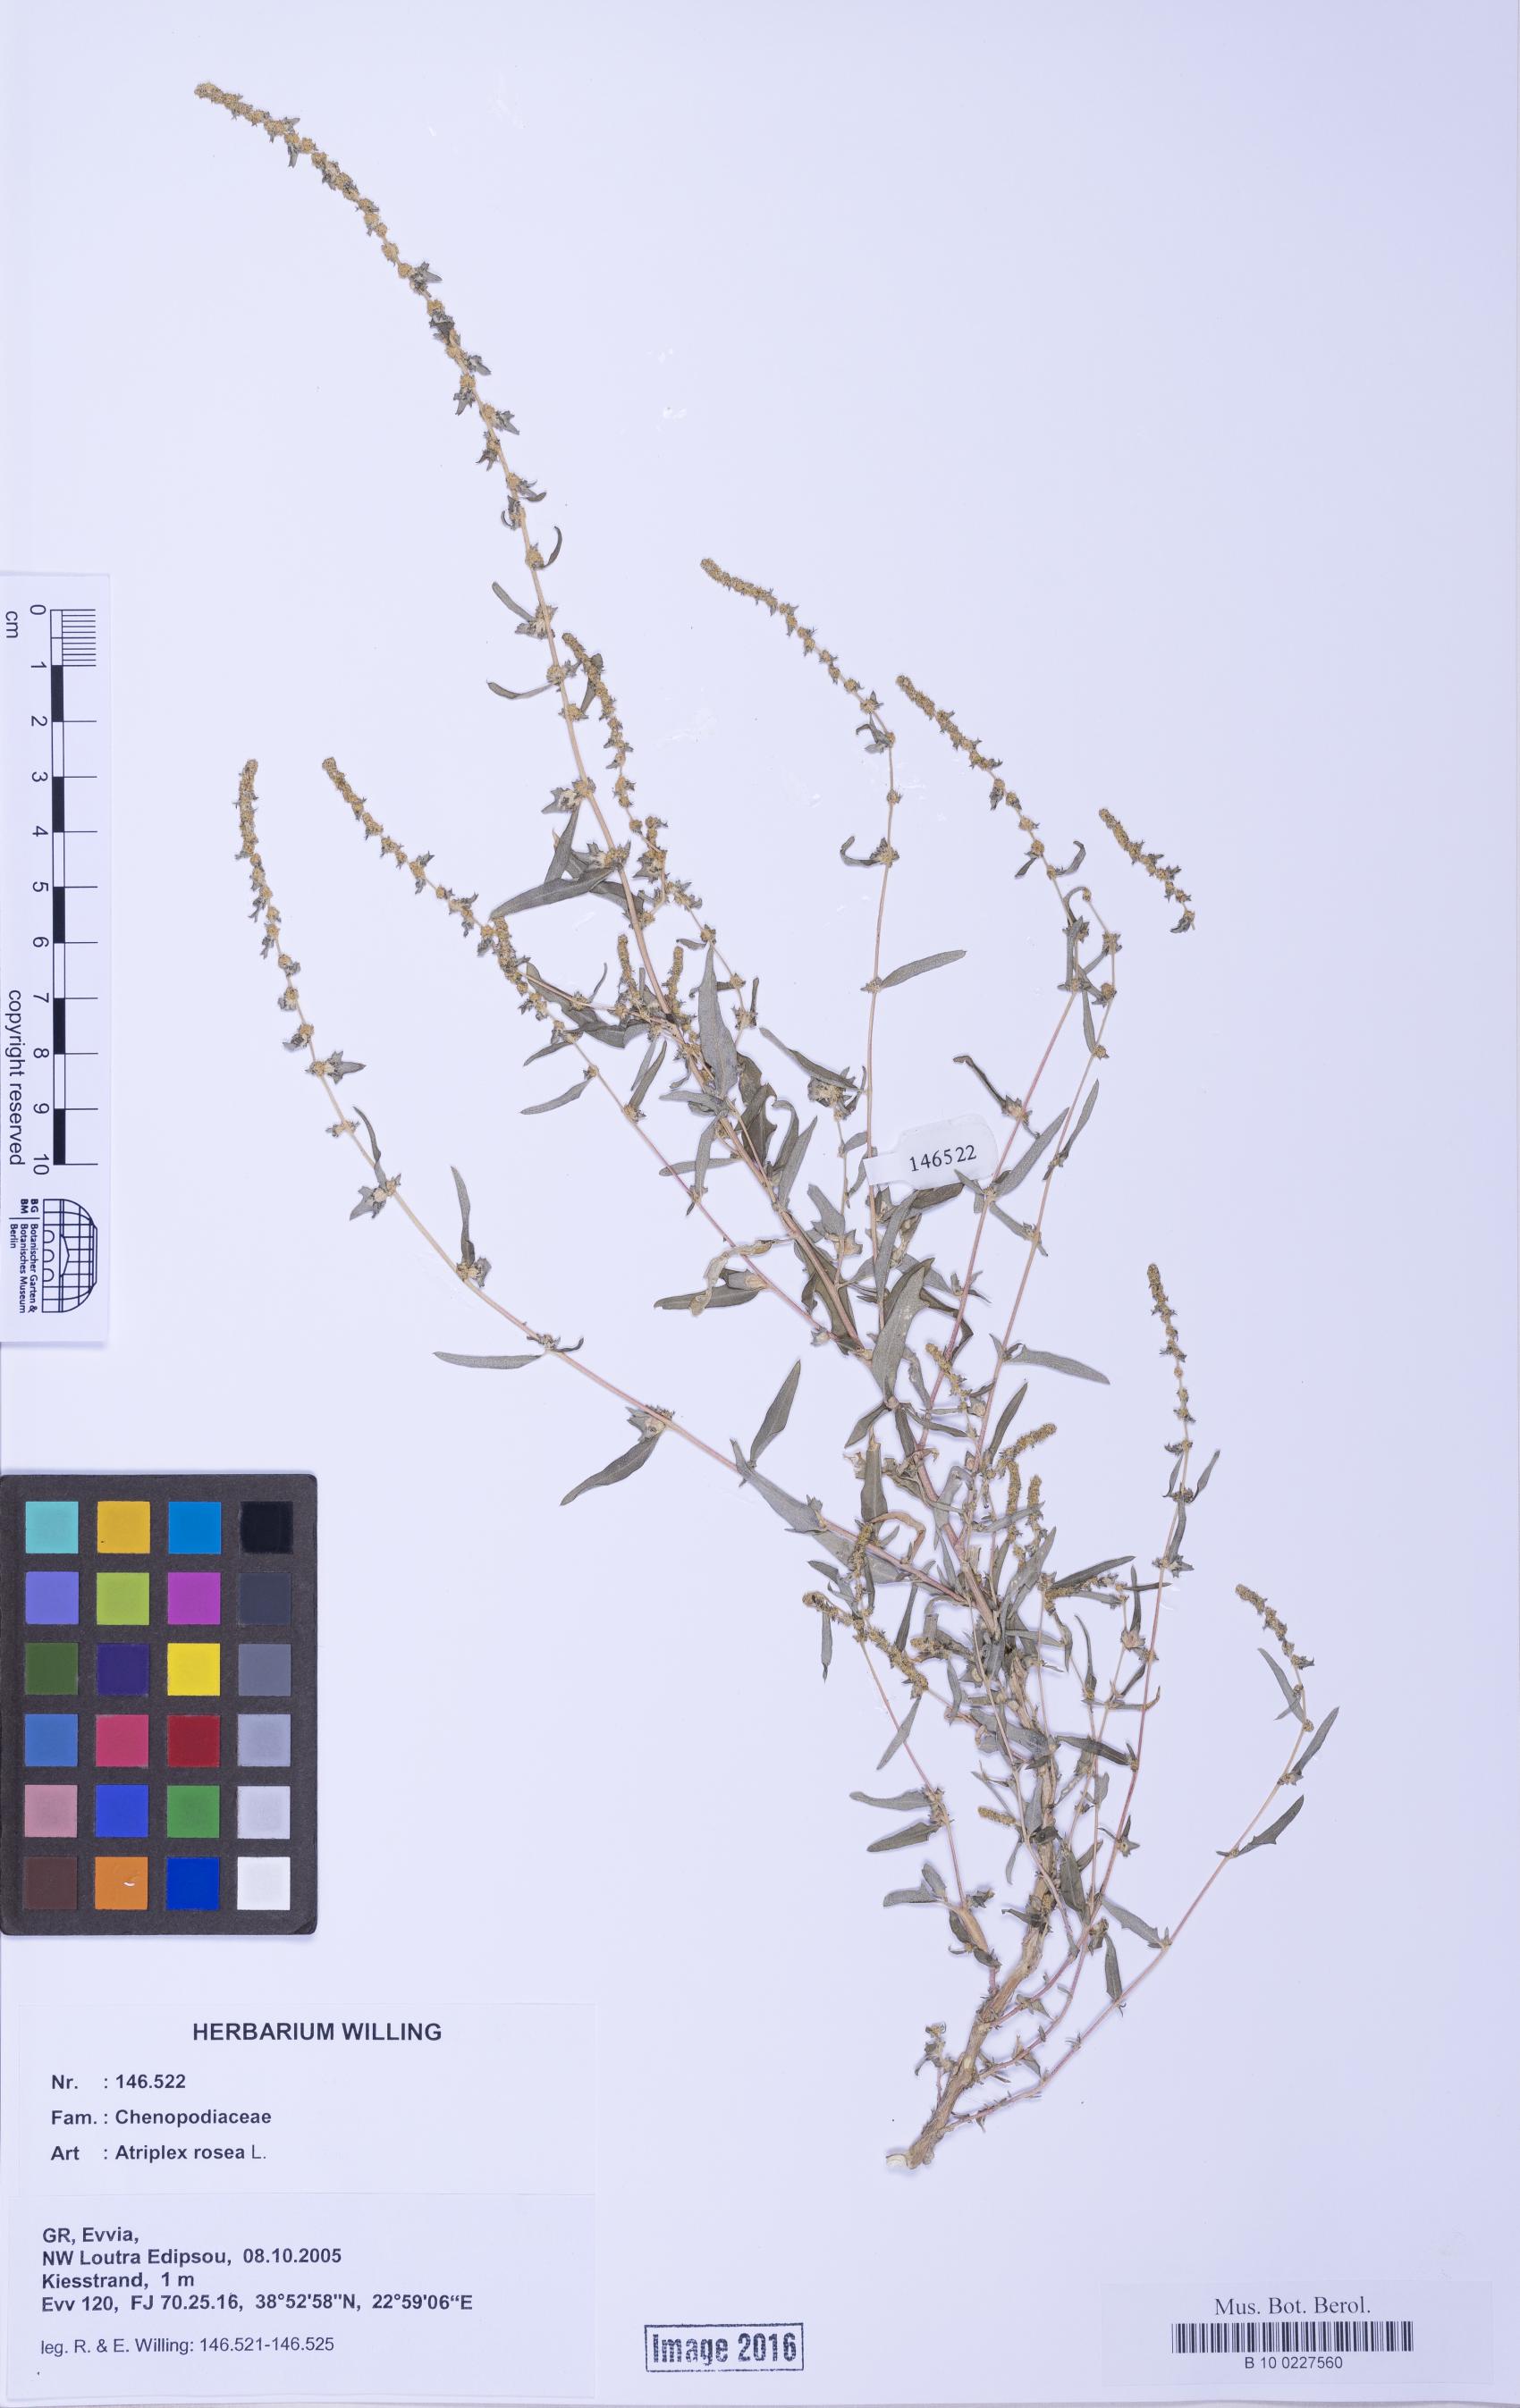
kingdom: Plantae
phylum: Tracheophyta
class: Magnoliopsida
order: Caryophyllales
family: Amaranthaceae
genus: Atriplex
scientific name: Atriplex tatarica
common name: Tatarian orache
